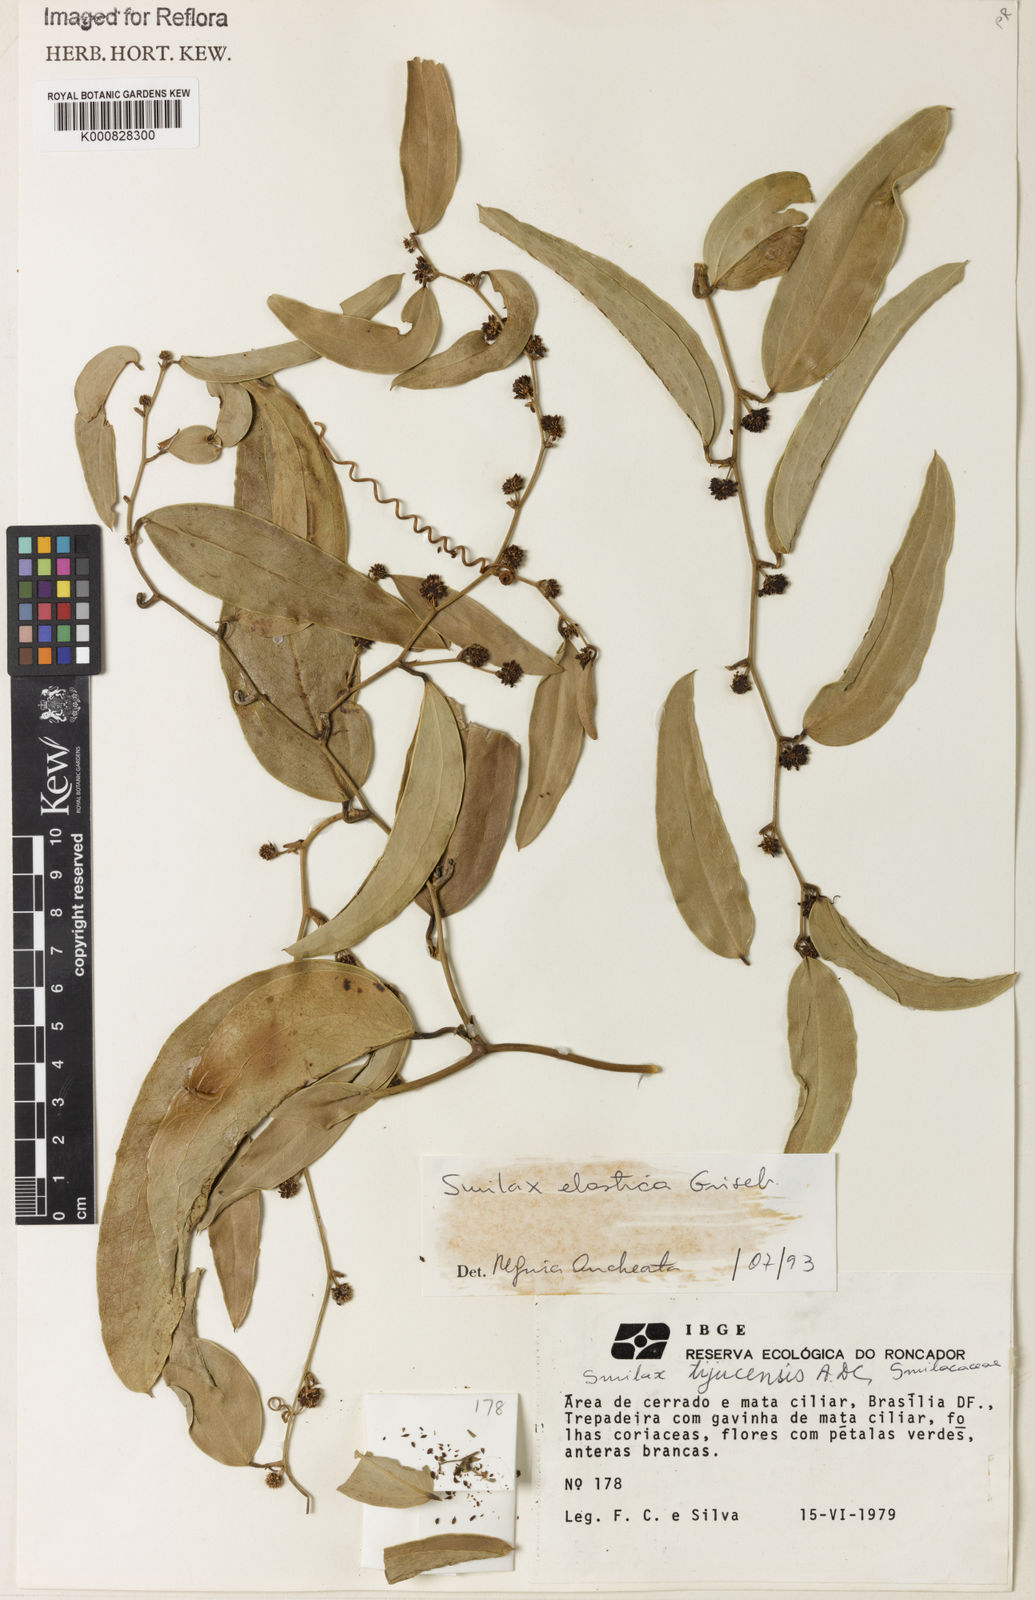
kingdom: Plantae
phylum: Tracheophyta
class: Liliopsida
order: Liliales
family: Smilacaceae
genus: Smilax
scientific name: Smilax elastica
